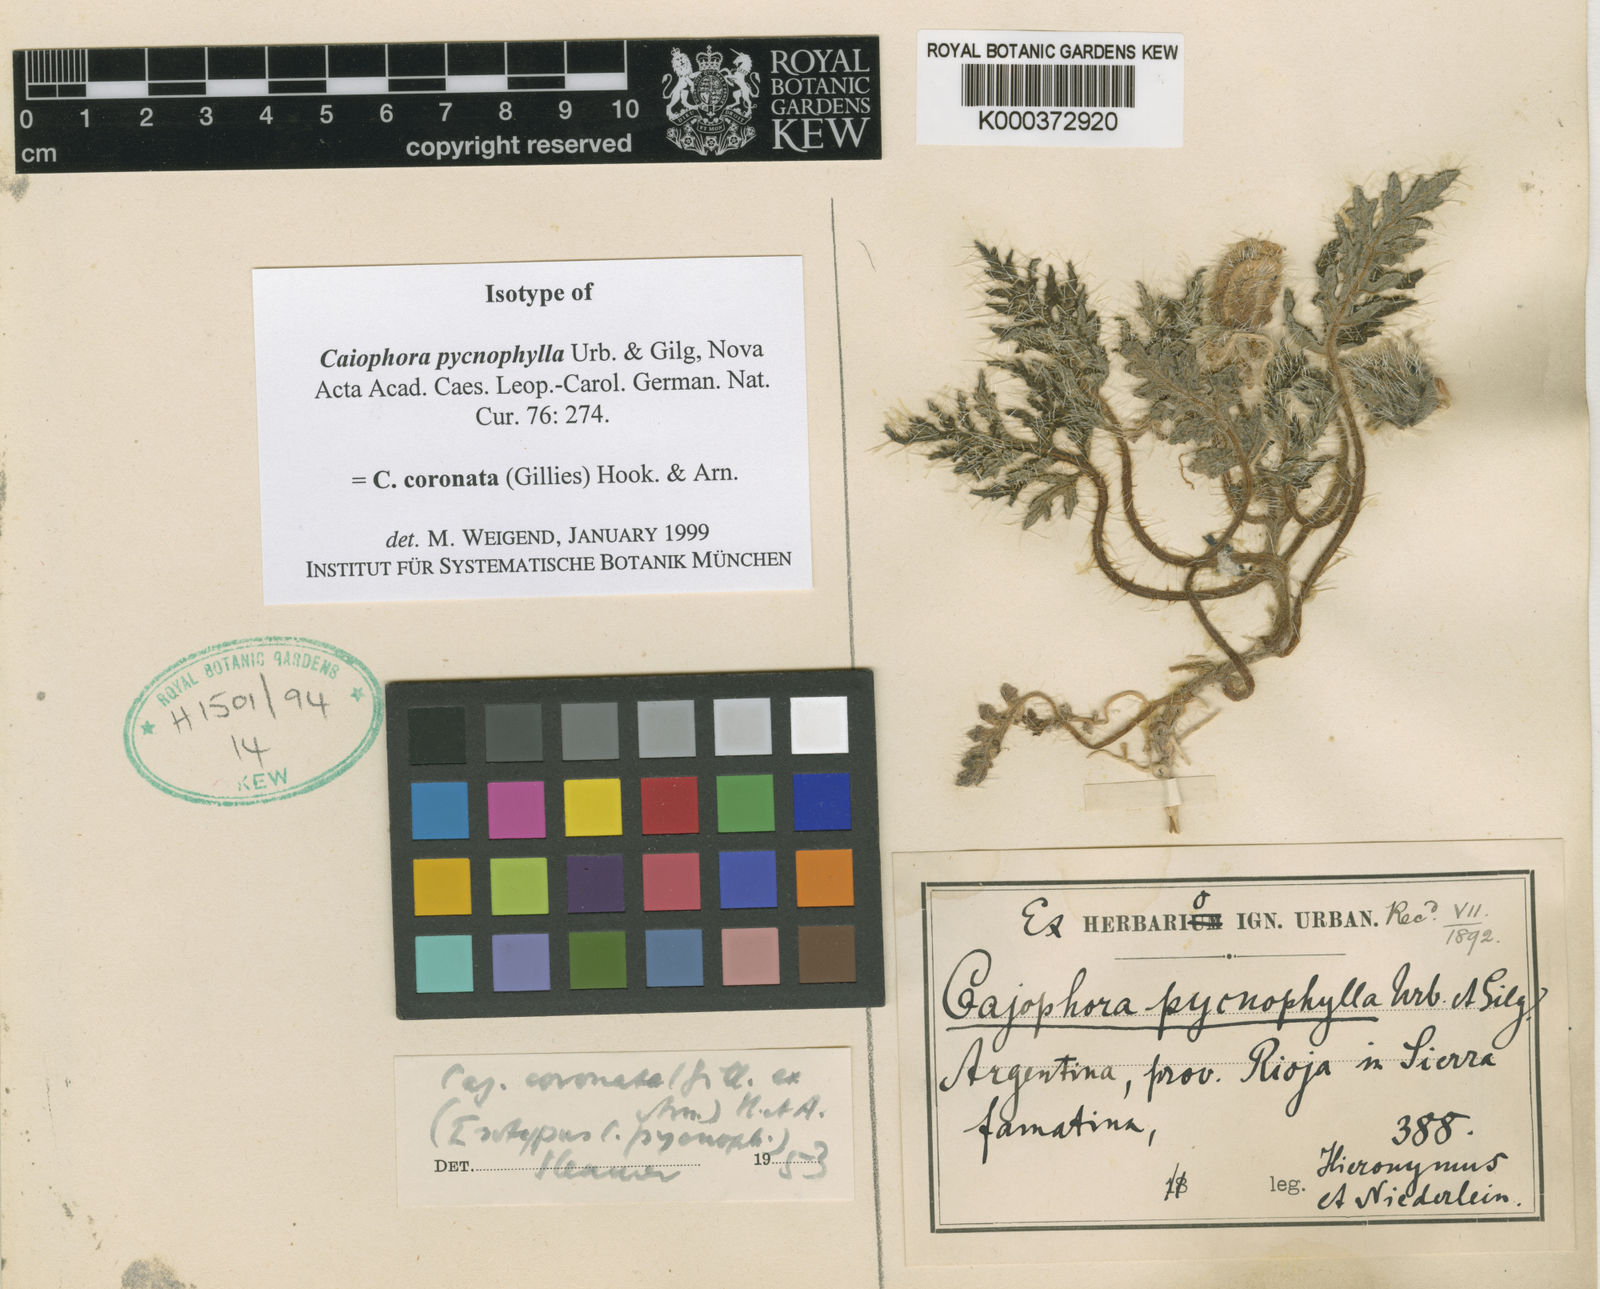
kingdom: Plantae
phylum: Tracheophyta
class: Magnoliopsida
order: Cornales
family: Loasaceae
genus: Caiophora
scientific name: Caiophora coronata
